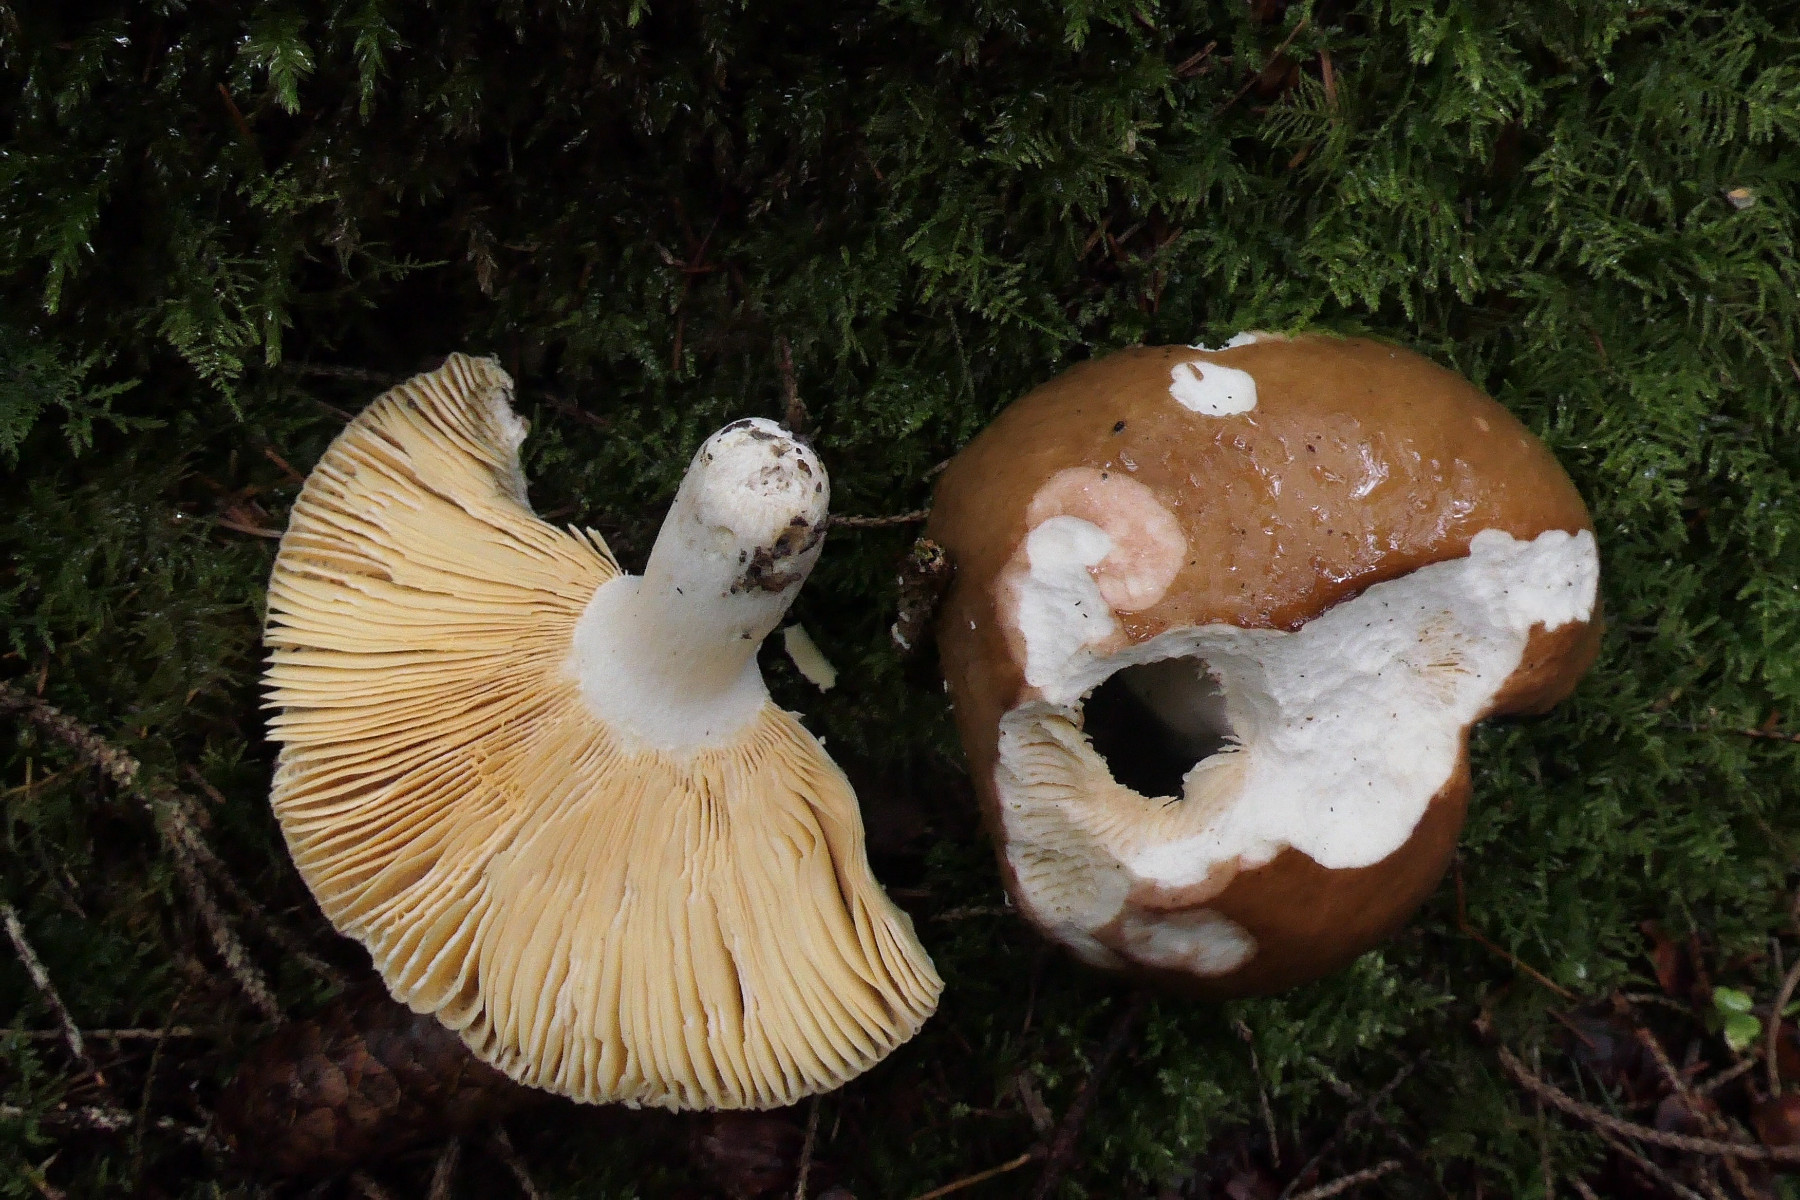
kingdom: Fungi
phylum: Basidiomycota
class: Agaricomycetes
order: Russulales
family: Russulaceae
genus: Russula
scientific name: Russula integra
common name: mandel-skørhat
